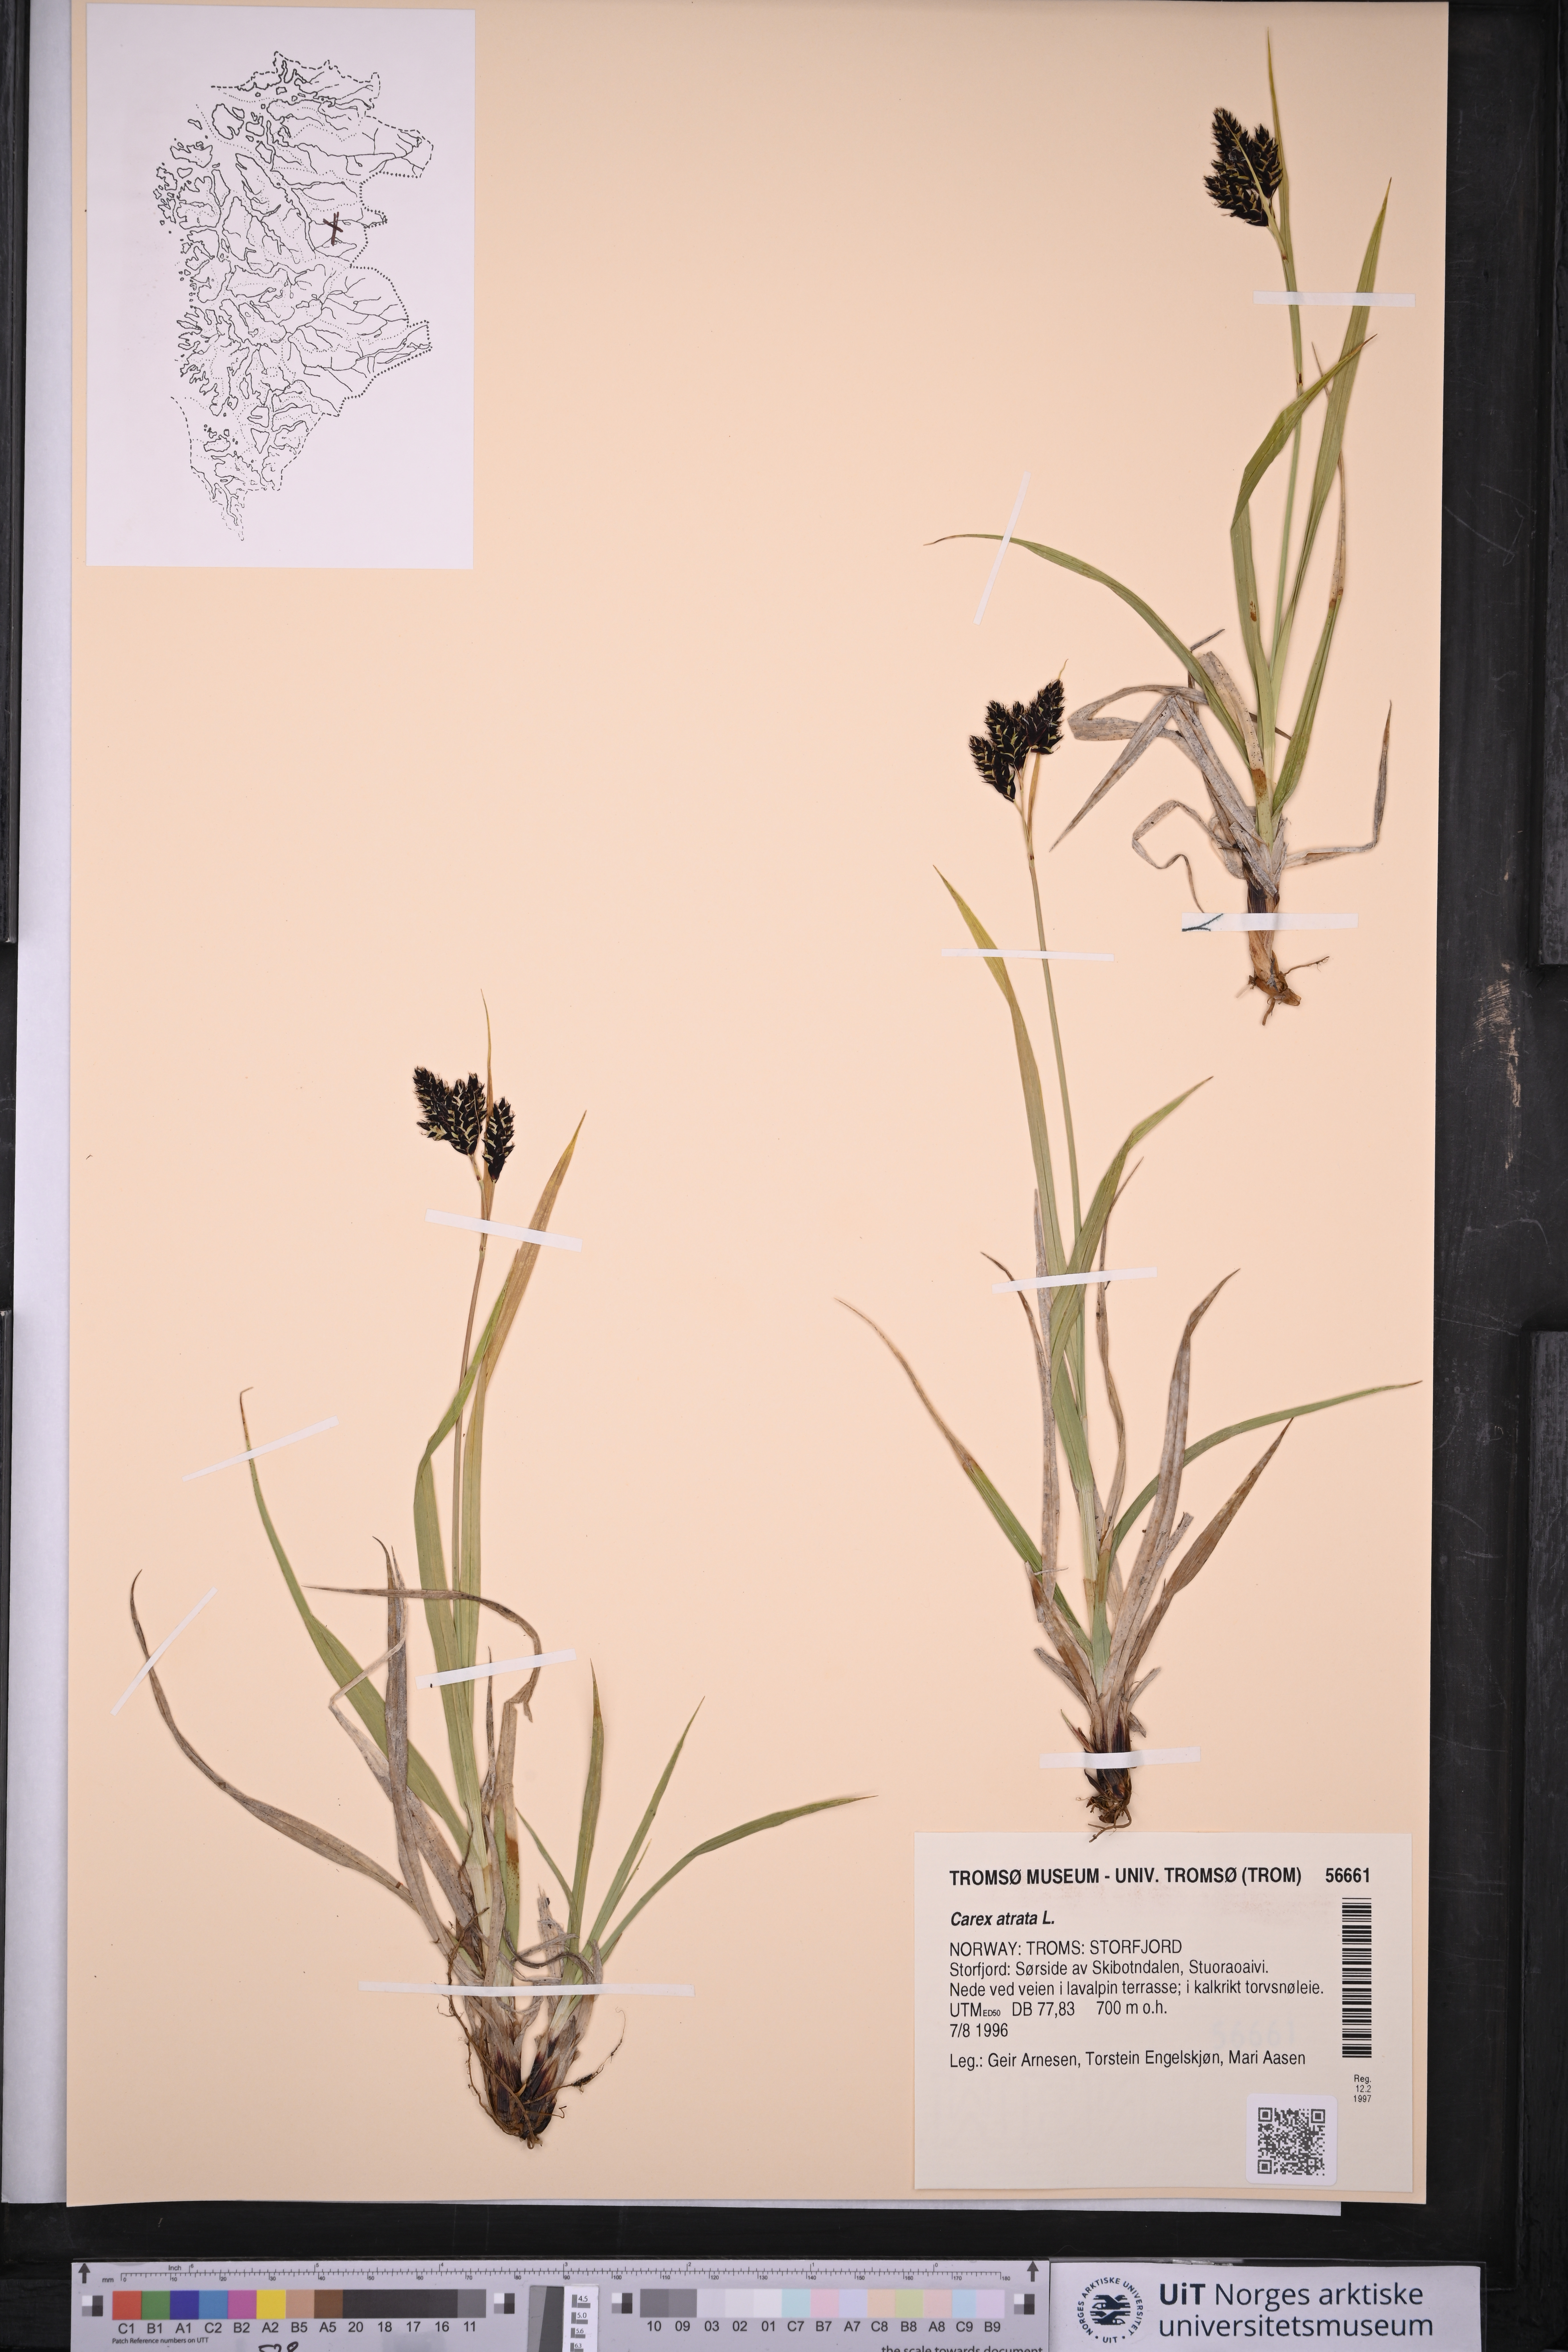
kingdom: Plantae
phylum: Tracheophyta
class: Liliopsida
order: Poales
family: Cyperaceae
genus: Carex
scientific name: Carex atrata
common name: Black alpine sedge
